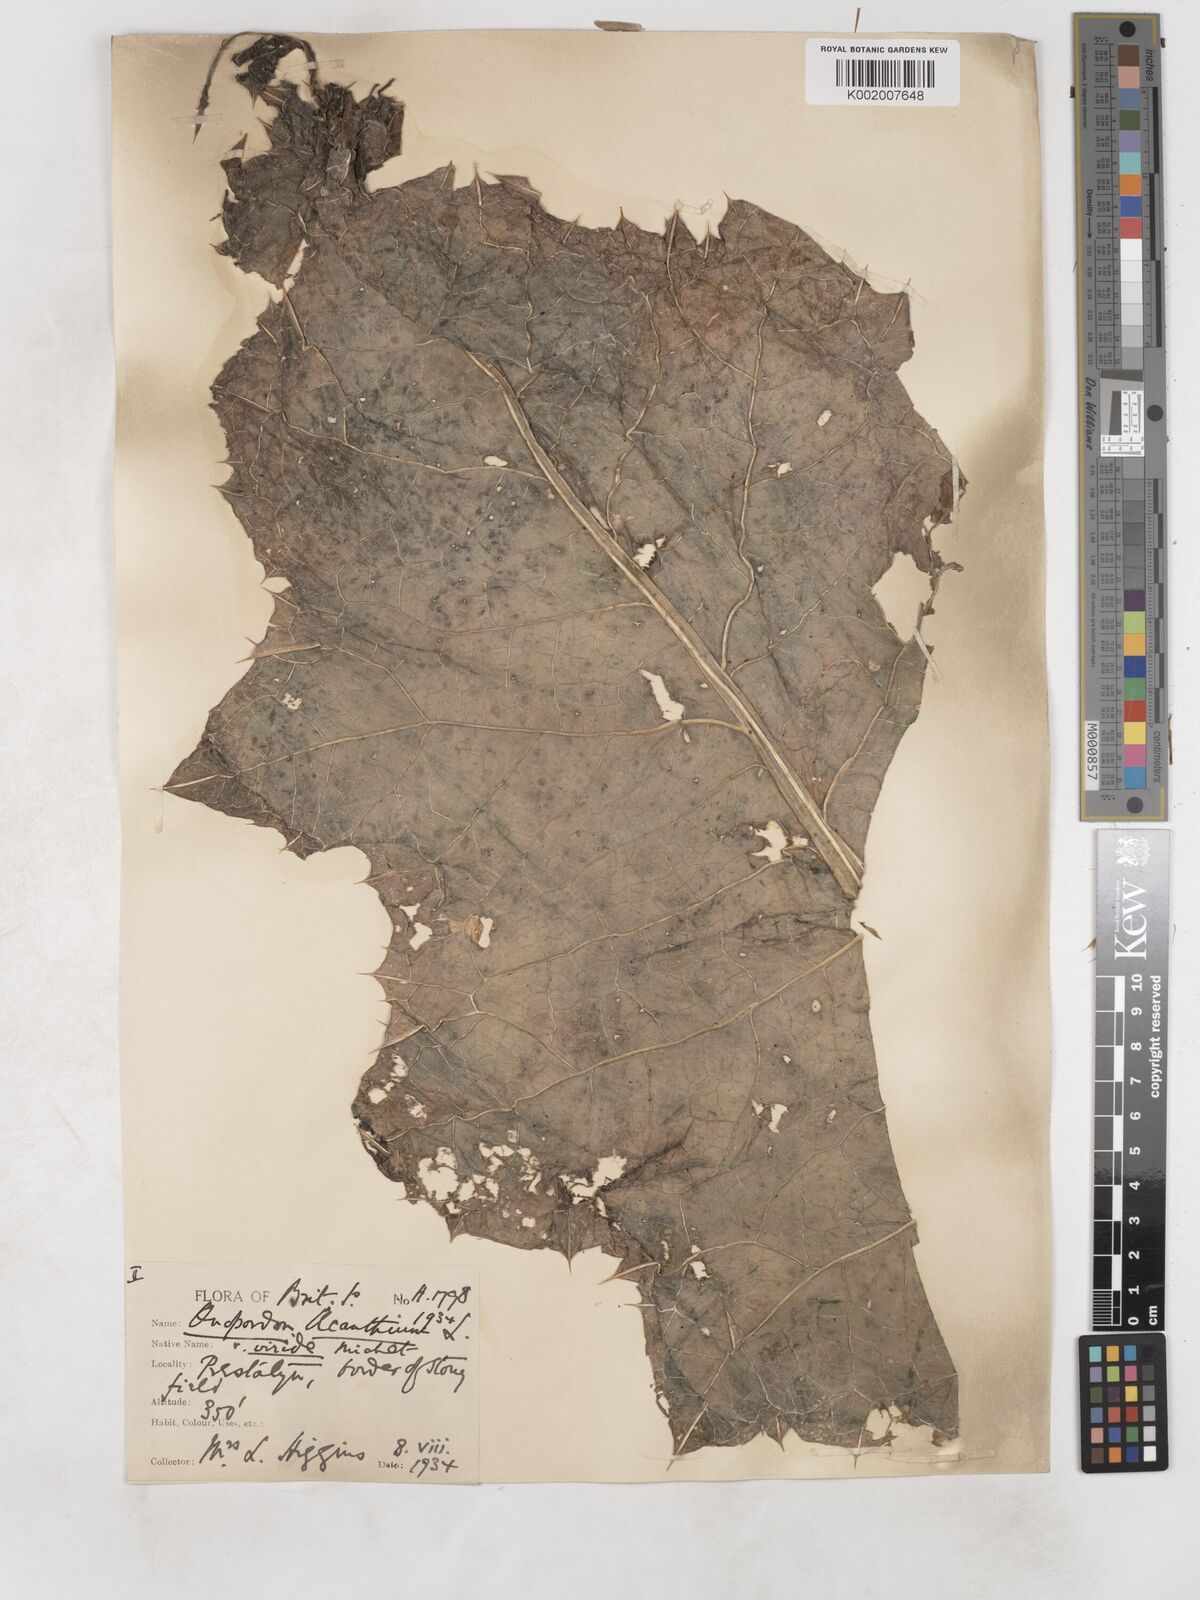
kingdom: Plantae
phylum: Tracheophyta
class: Magnoliopsida
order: Asterales
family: Asteraceae
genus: Onopordum
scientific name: Onopordum acanthium
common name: Scotch thistle
